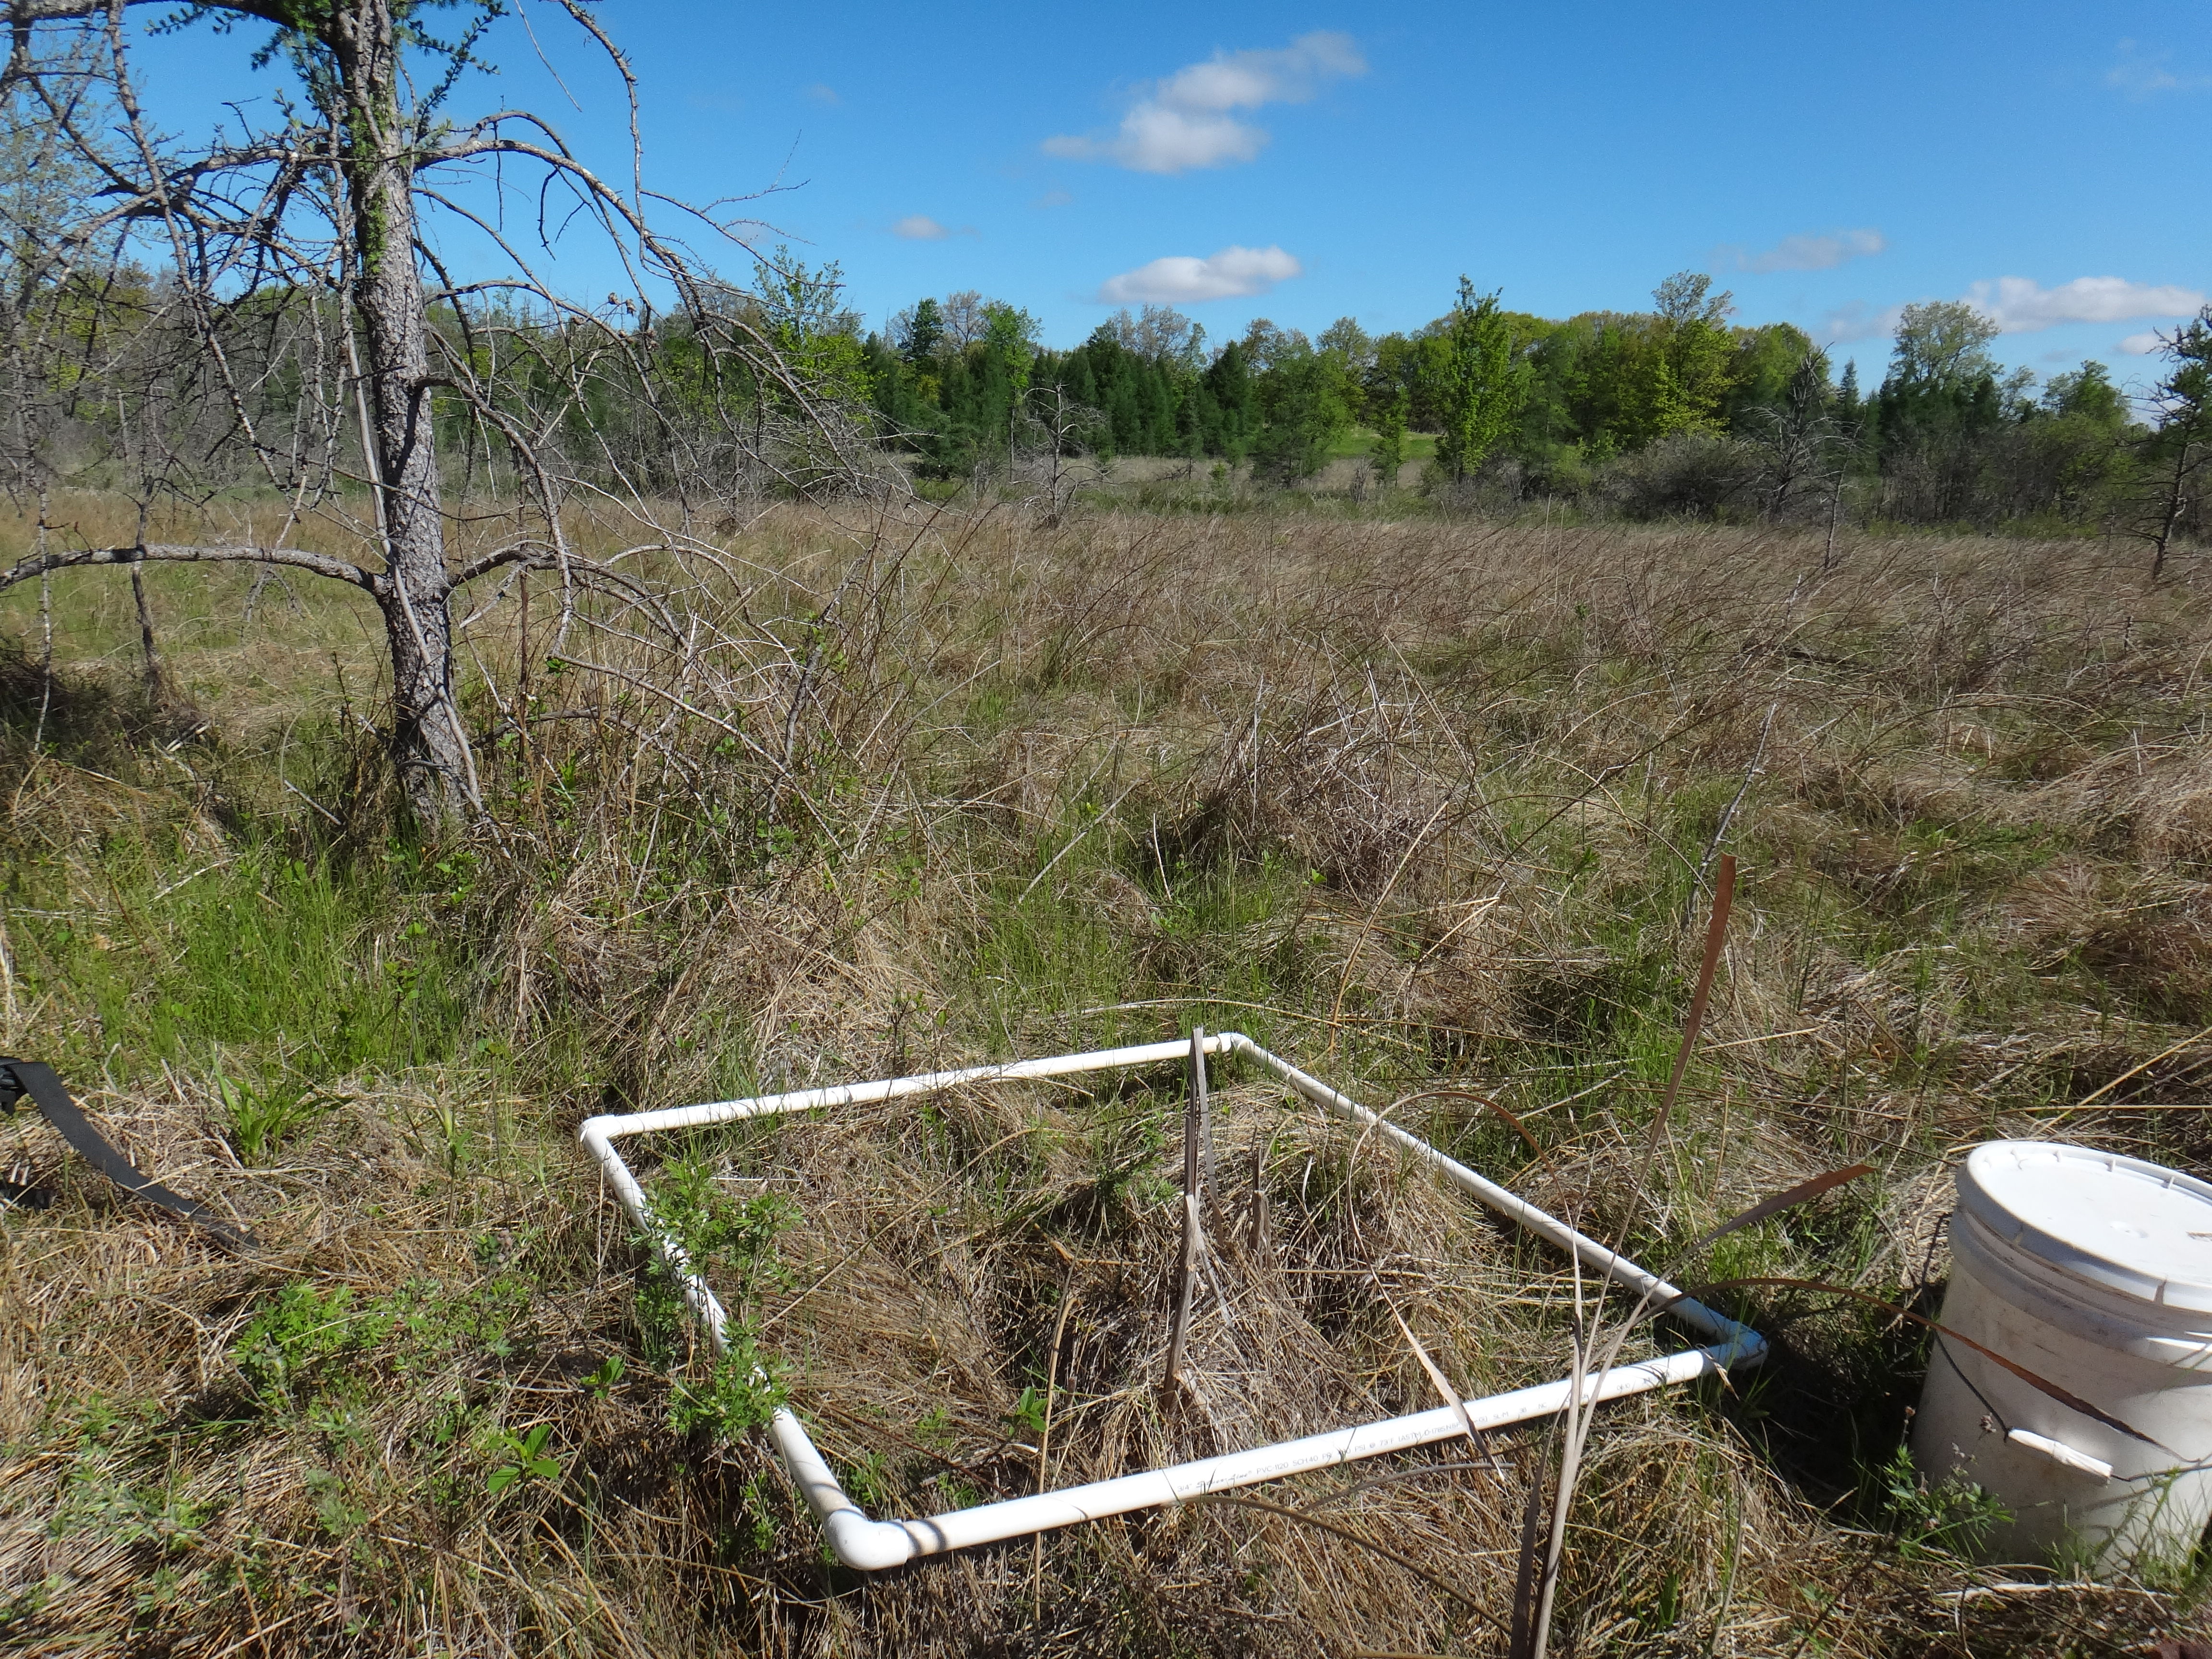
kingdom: Plantae
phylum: Tracheophyta
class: Magnoliopsida
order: Gentianales
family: Rubiaceae
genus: Galium
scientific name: Galium boreale
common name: Northern bedstraw
